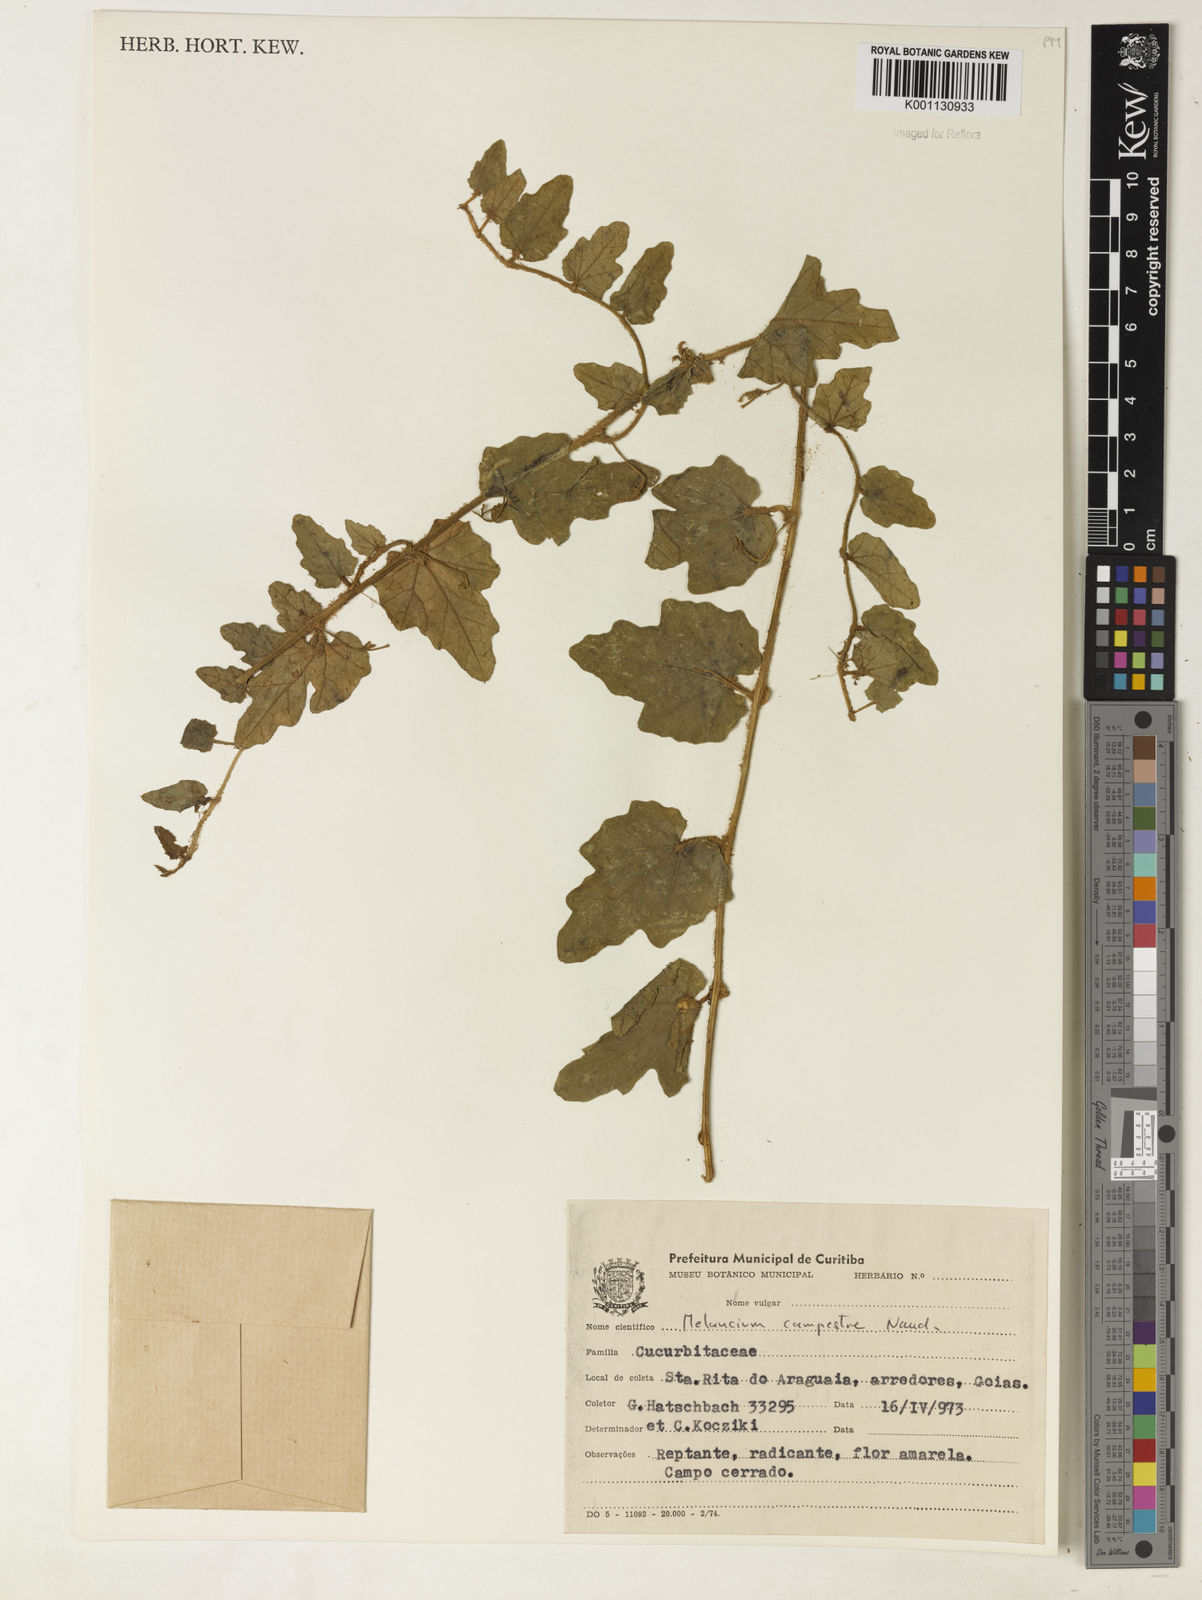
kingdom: Plantae
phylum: Tracheophyta
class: Magnoliopsida
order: Cucurbitales
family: Cucurbitaceae
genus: Melothria
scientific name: Melothria campestris
